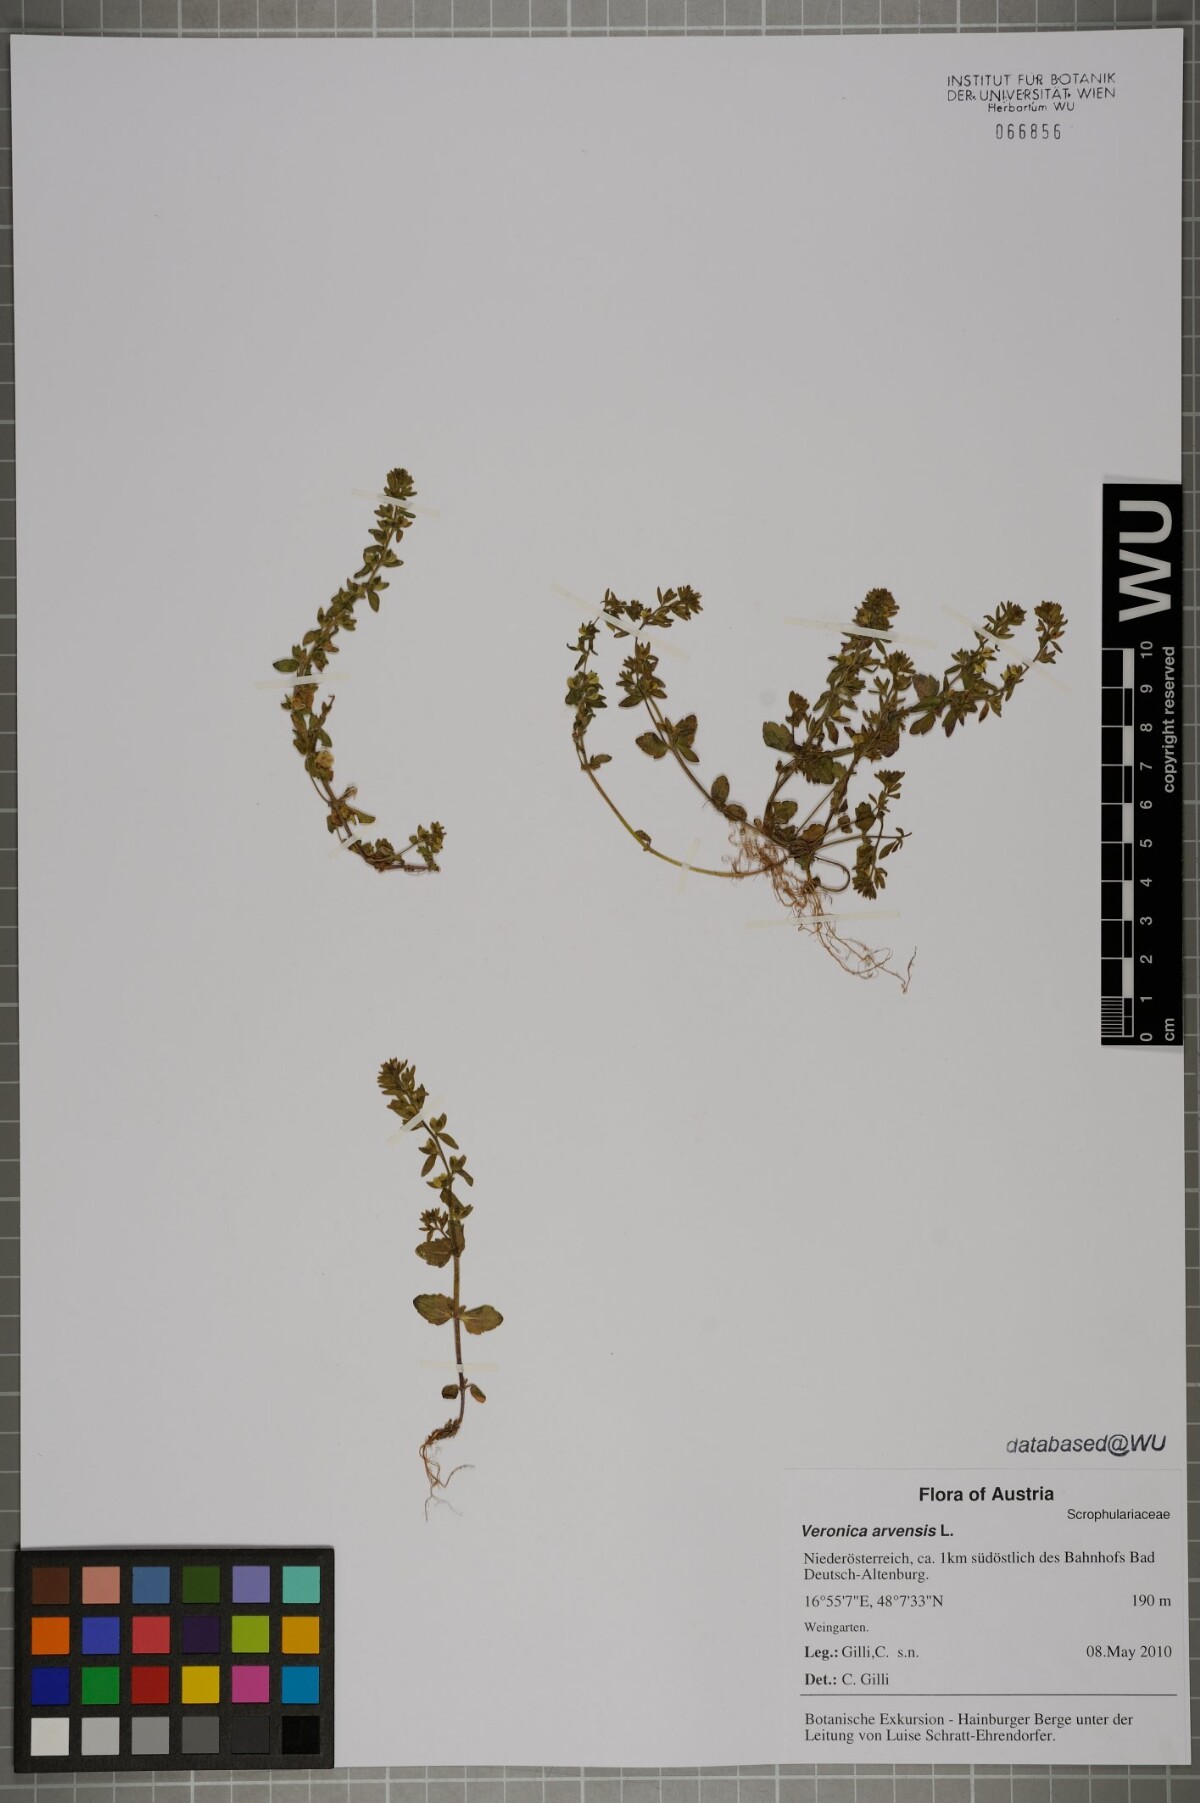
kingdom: Plantae
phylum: Tracheophyta
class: Magnoliopsida
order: Lamiales
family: Plantaginaceae
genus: Veronica
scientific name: Veronica arvensis
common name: Corn speedwell
